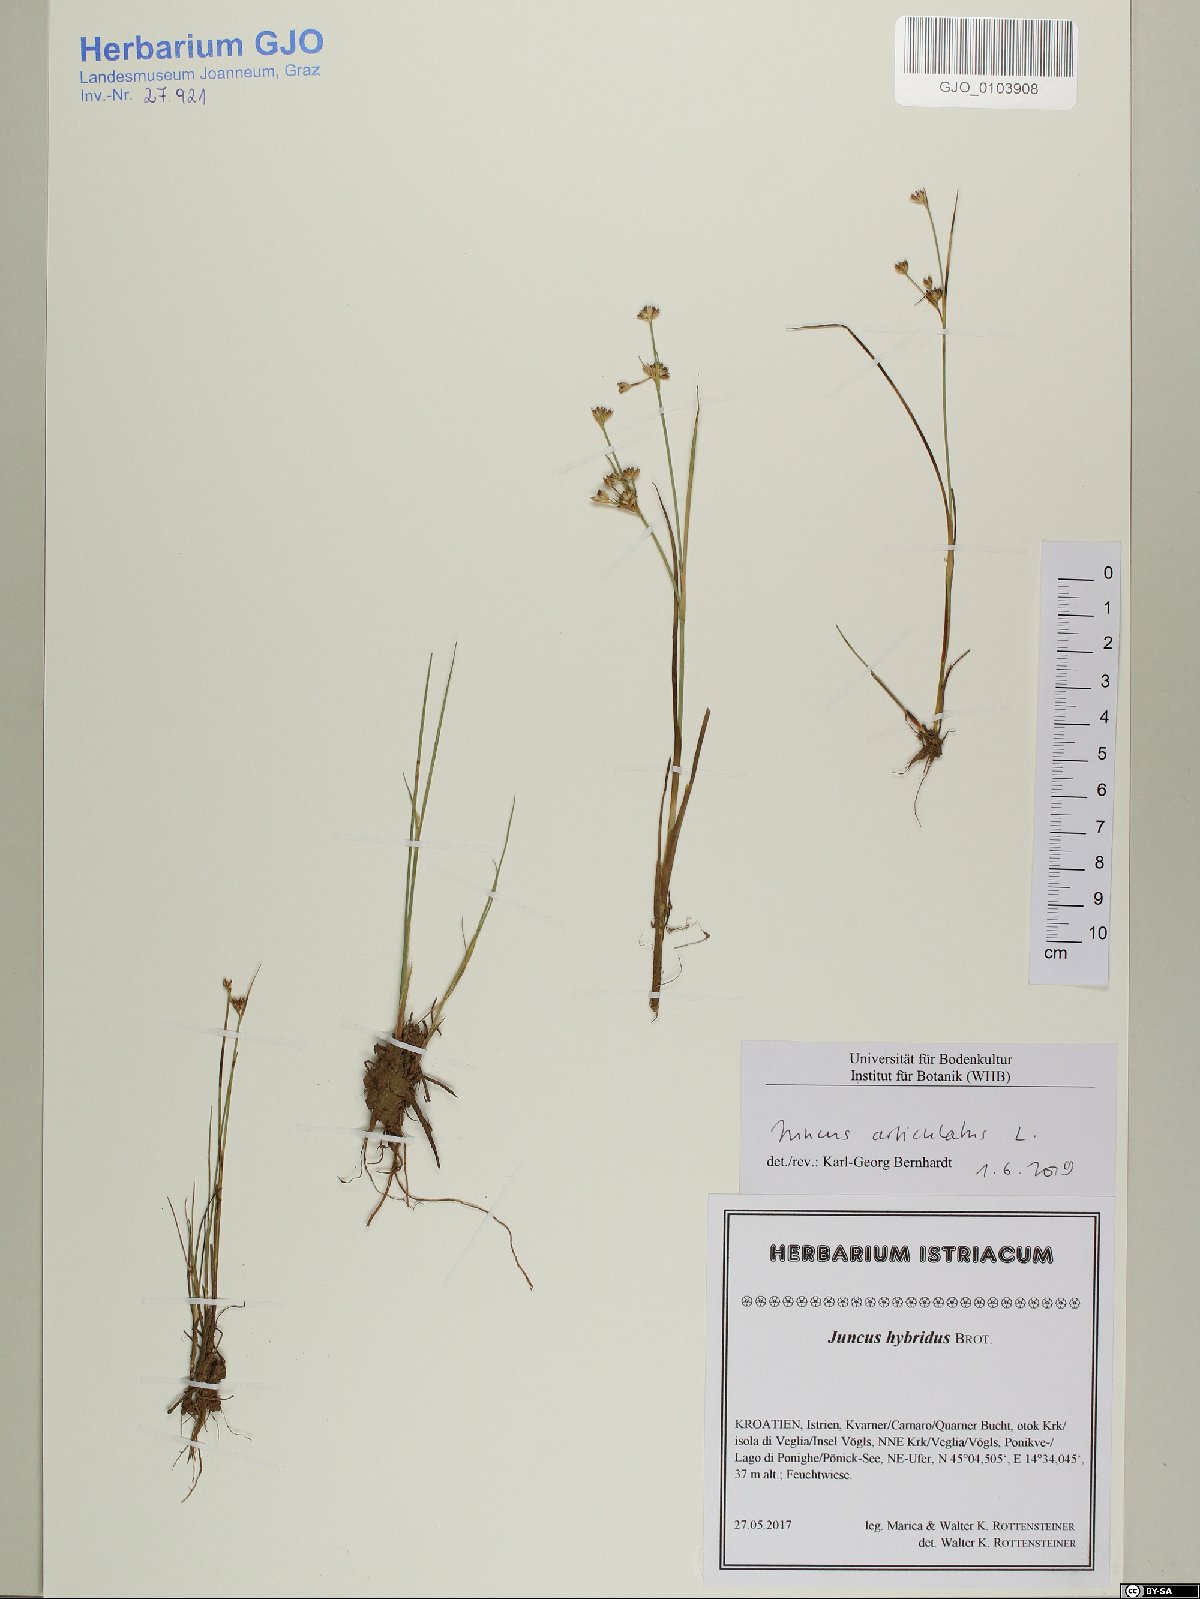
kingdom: Plantae
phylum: Tracheophyta
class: Liliopsida
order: Poales
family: Juncaceae
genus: Juncus
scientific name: Juncus articulatus
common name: Jointed rush
